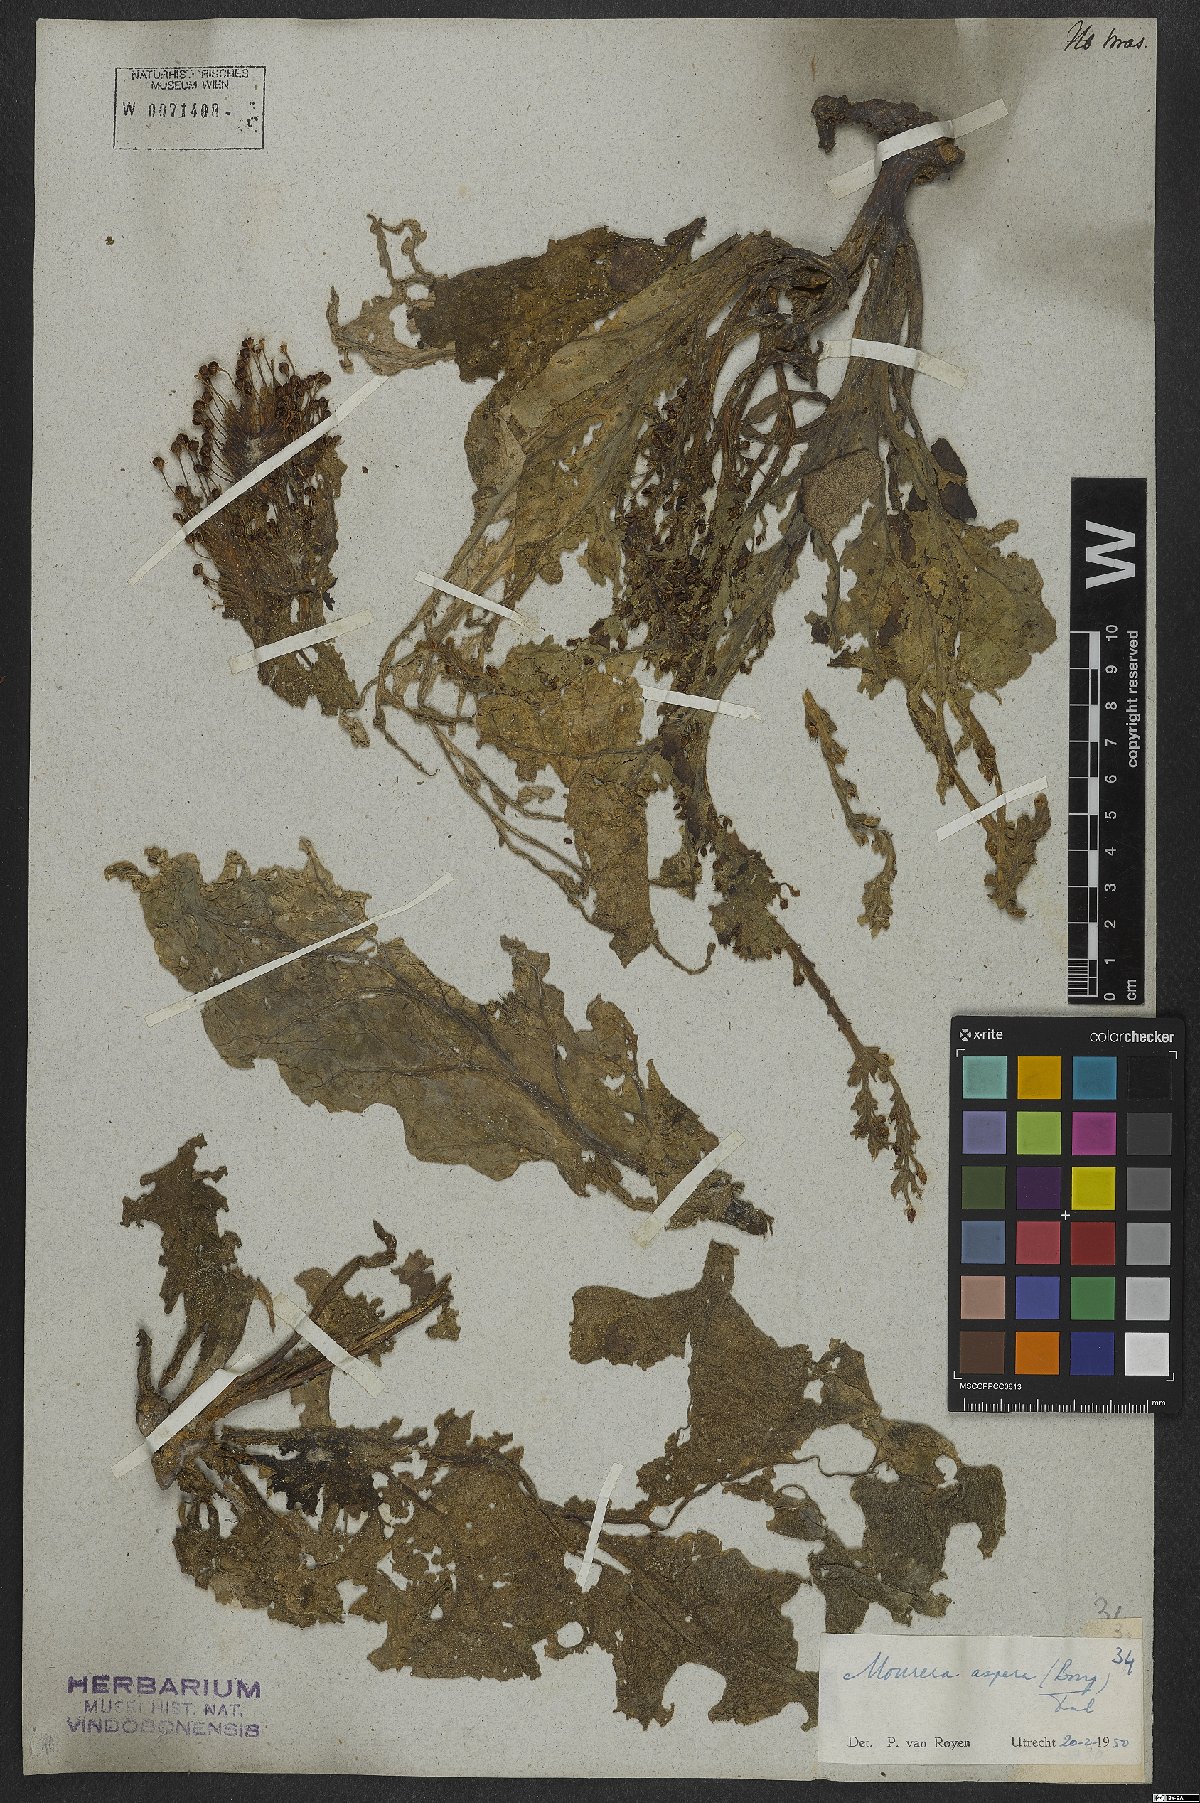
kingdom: Plantae
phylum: Tracheophyta
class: Magnoliopsida
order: Malpighiales
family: Podostemaceae
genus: Mourera
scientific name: Mourera aspera
